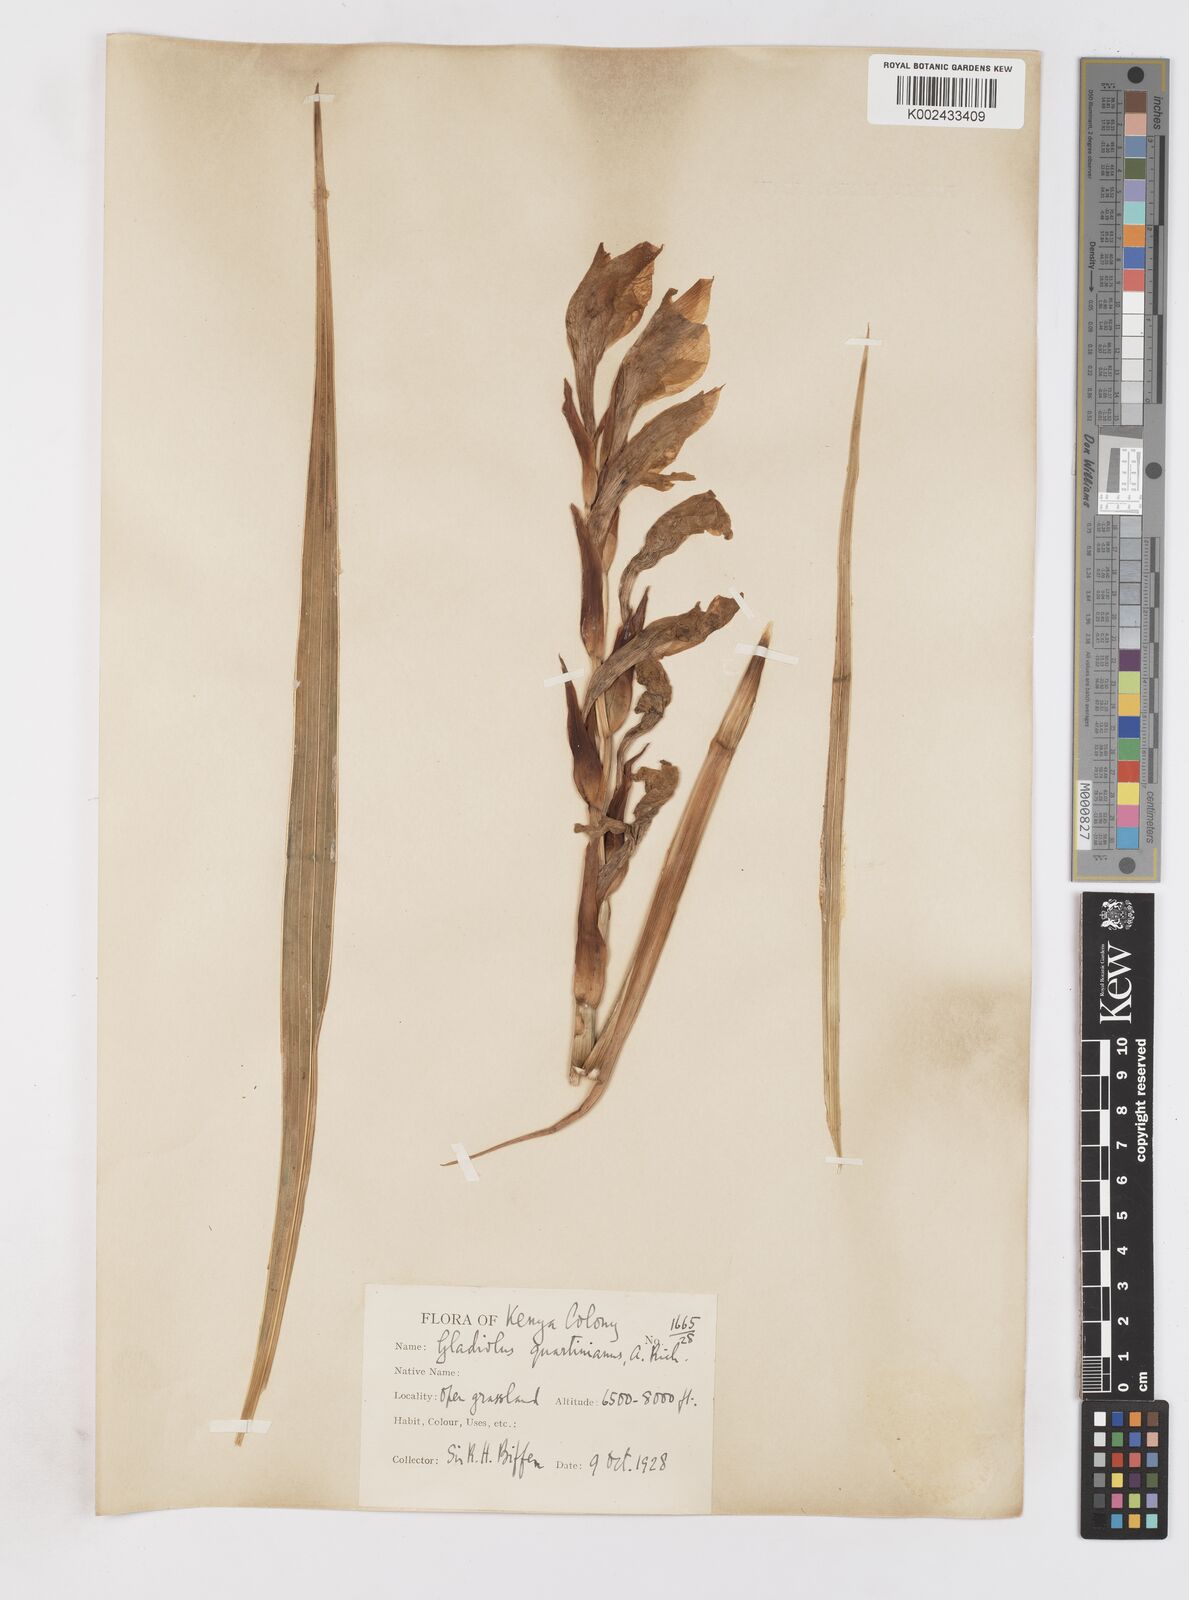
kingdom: Plantae
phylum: Tracheophyta
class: Liliopsida
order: Asparagales
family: Iridaceae
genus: Gladiolus
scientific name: Gladiolus dalenii
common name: Cornflag
